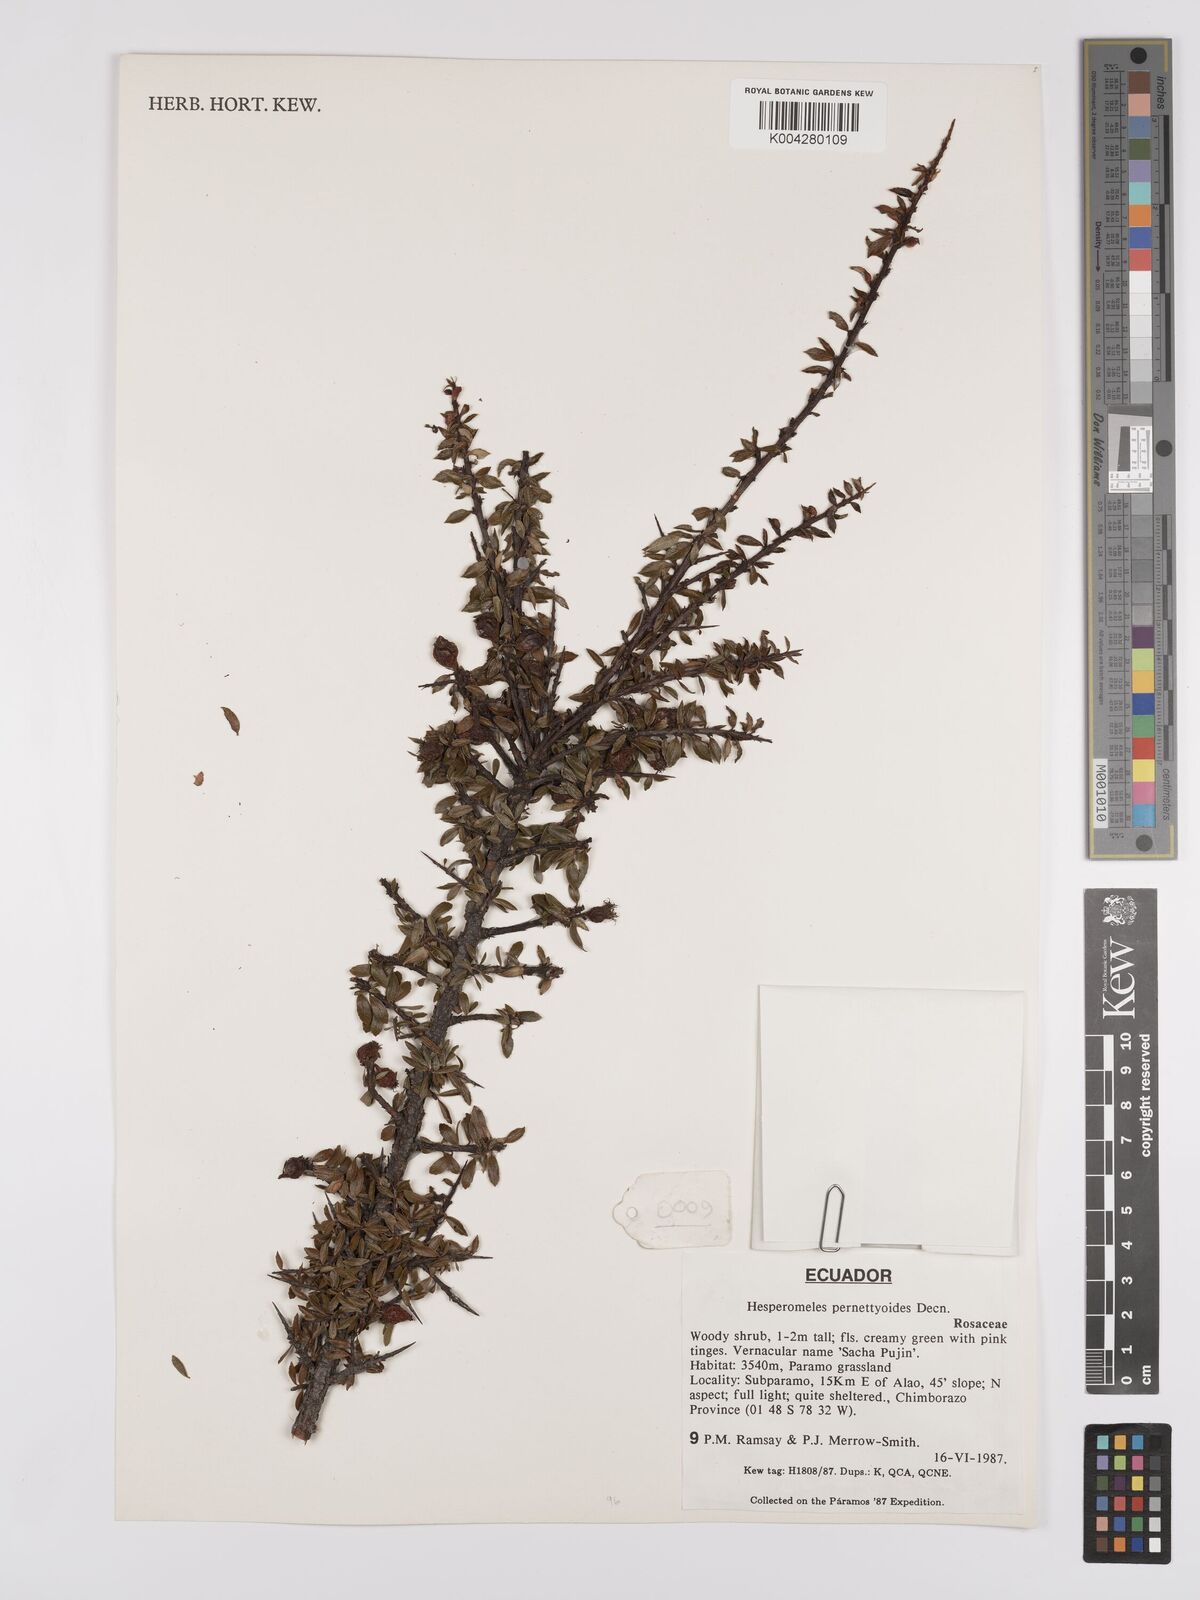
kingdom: Plantae
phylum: Tracheophyta
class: Magnoliopsida
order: Rosales
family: Rosaceae
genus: Hesperomeles
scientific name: Hesperomeles obtusifolia
